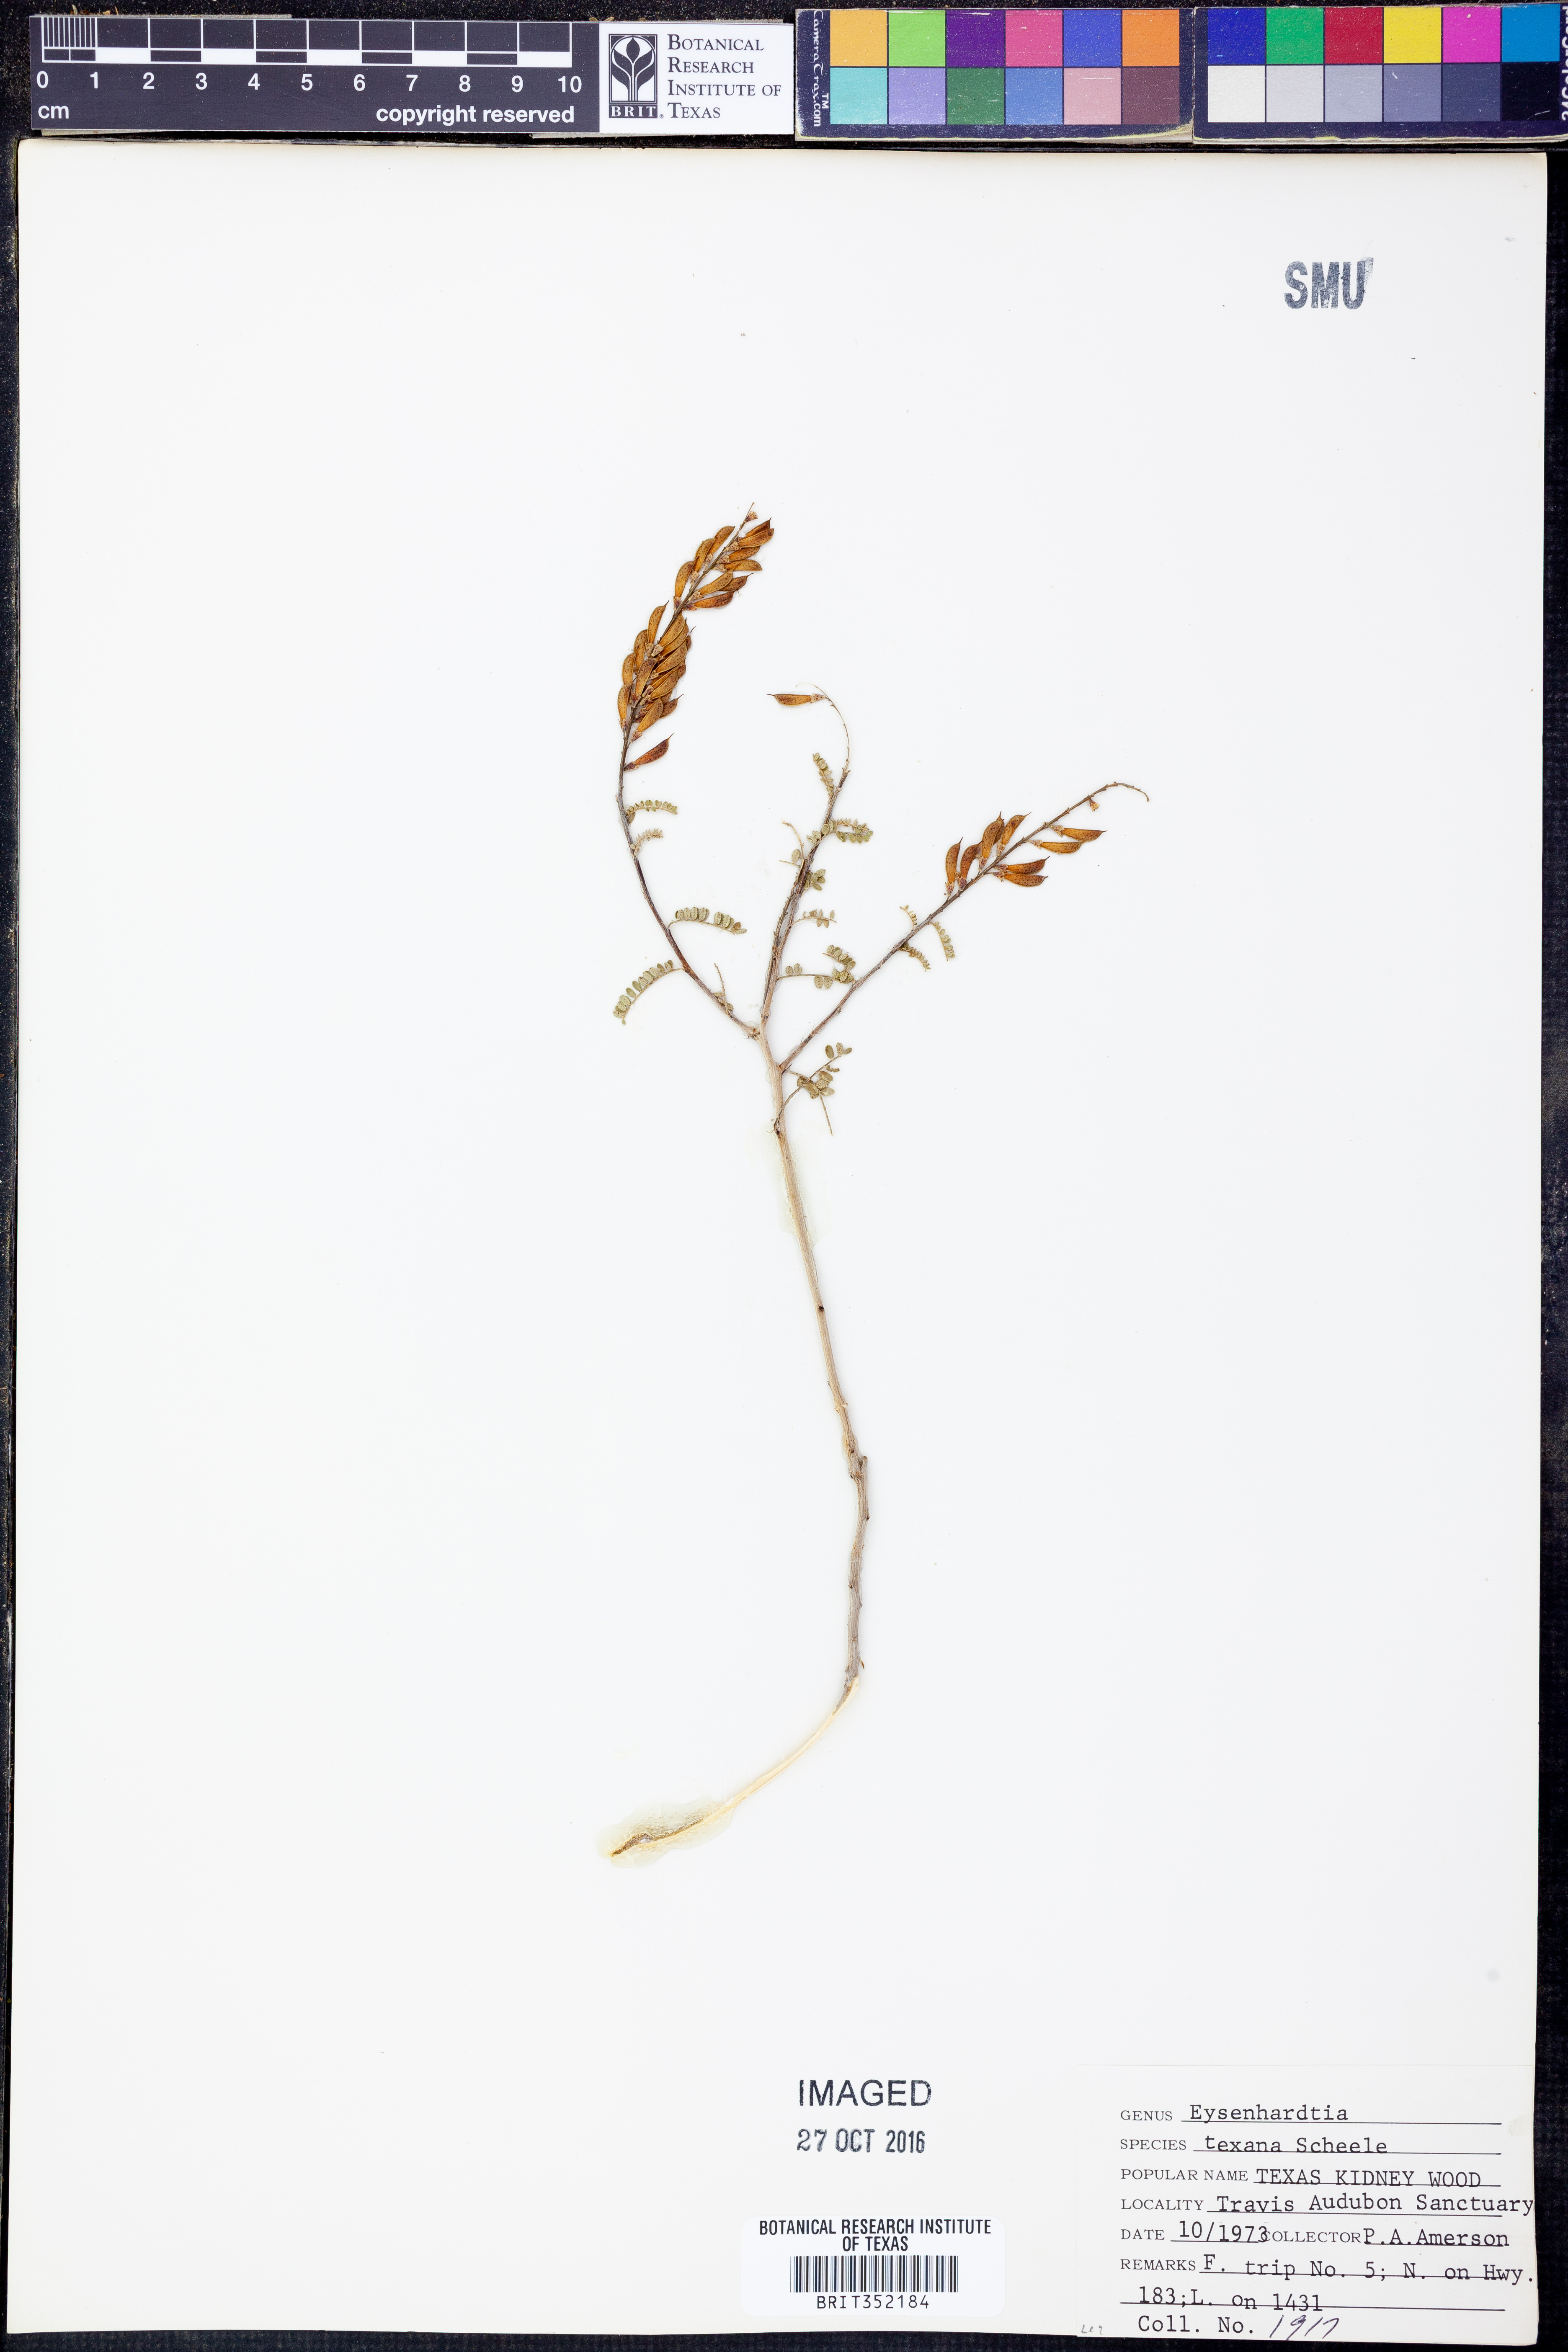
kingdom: Plantae
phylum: Tracheophyta
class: Magnoliopsida
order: Fabales
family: Fabaceae
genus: Eysenhardtia
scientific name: Eysenhardtia texana
